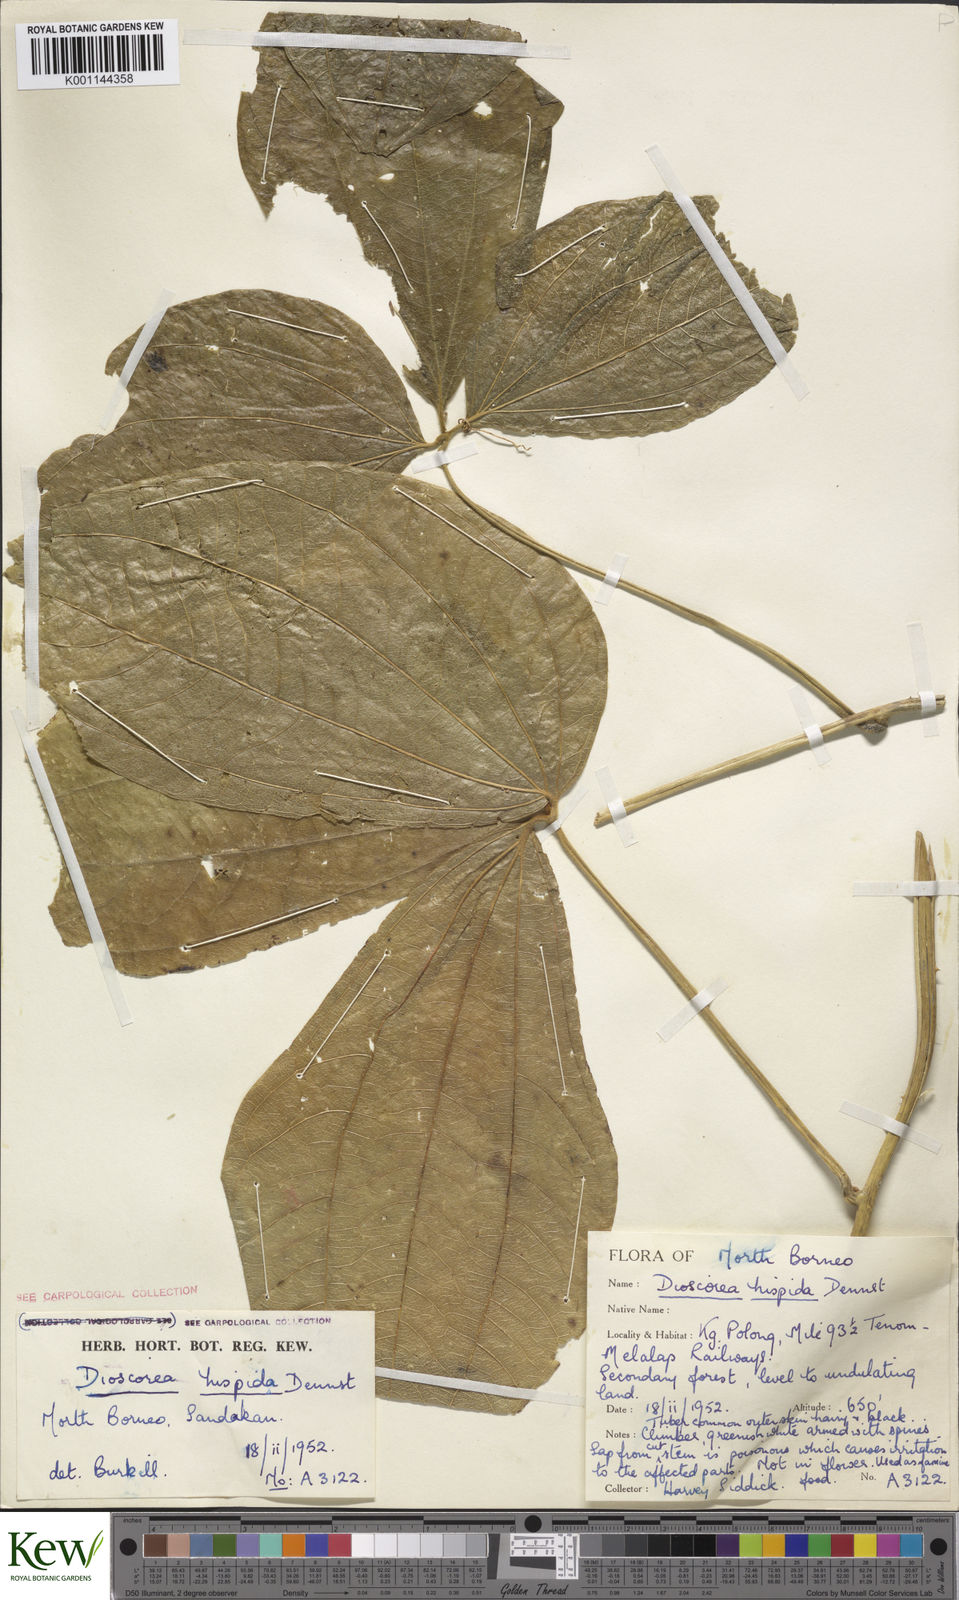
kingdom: Plantae
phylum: Tracheophyta
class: Liliopsida
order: Dioscoreales
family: Dioscoreaceae
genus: Dioscorea
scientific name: Dioscorea hispida
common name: Asiatic bitter yam
